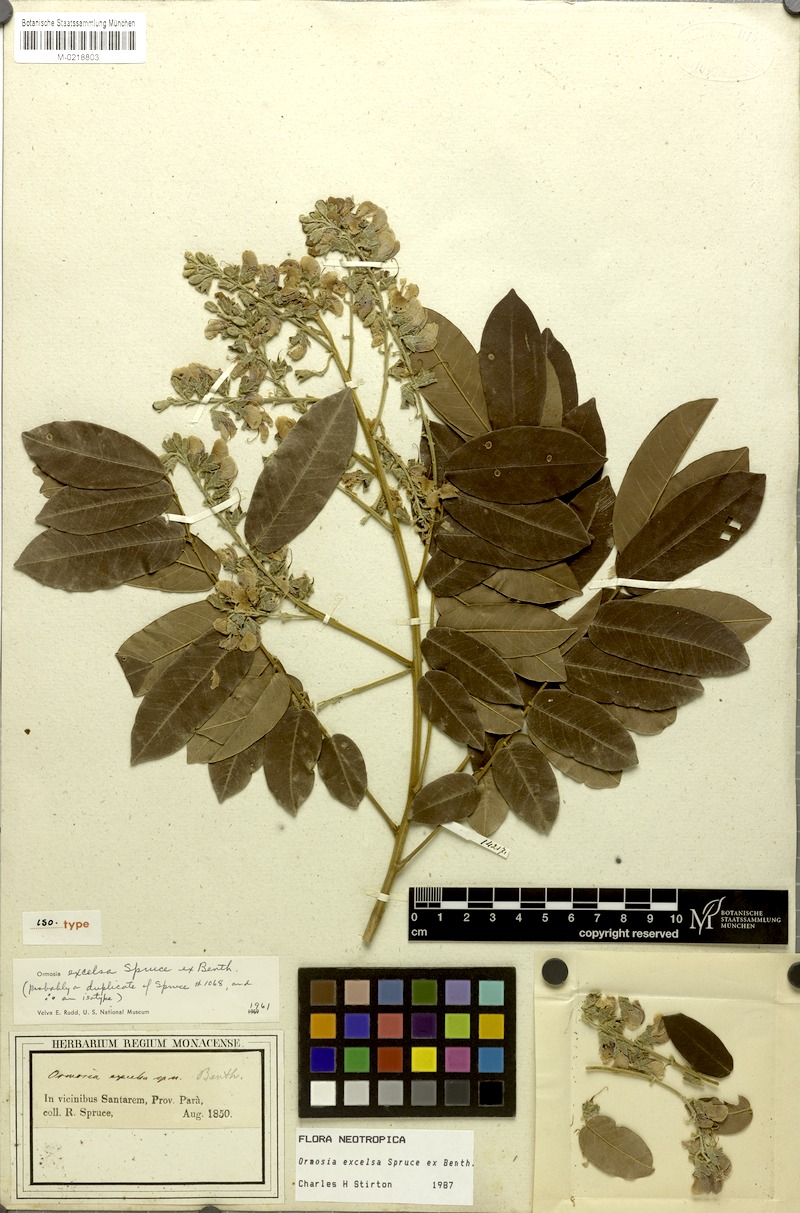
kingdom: Plantae
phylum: Tracheophyta
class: Magnoliopsida
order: Fabales
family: Fabaceae
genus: Ormosia
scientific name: Ormosia excelsa
